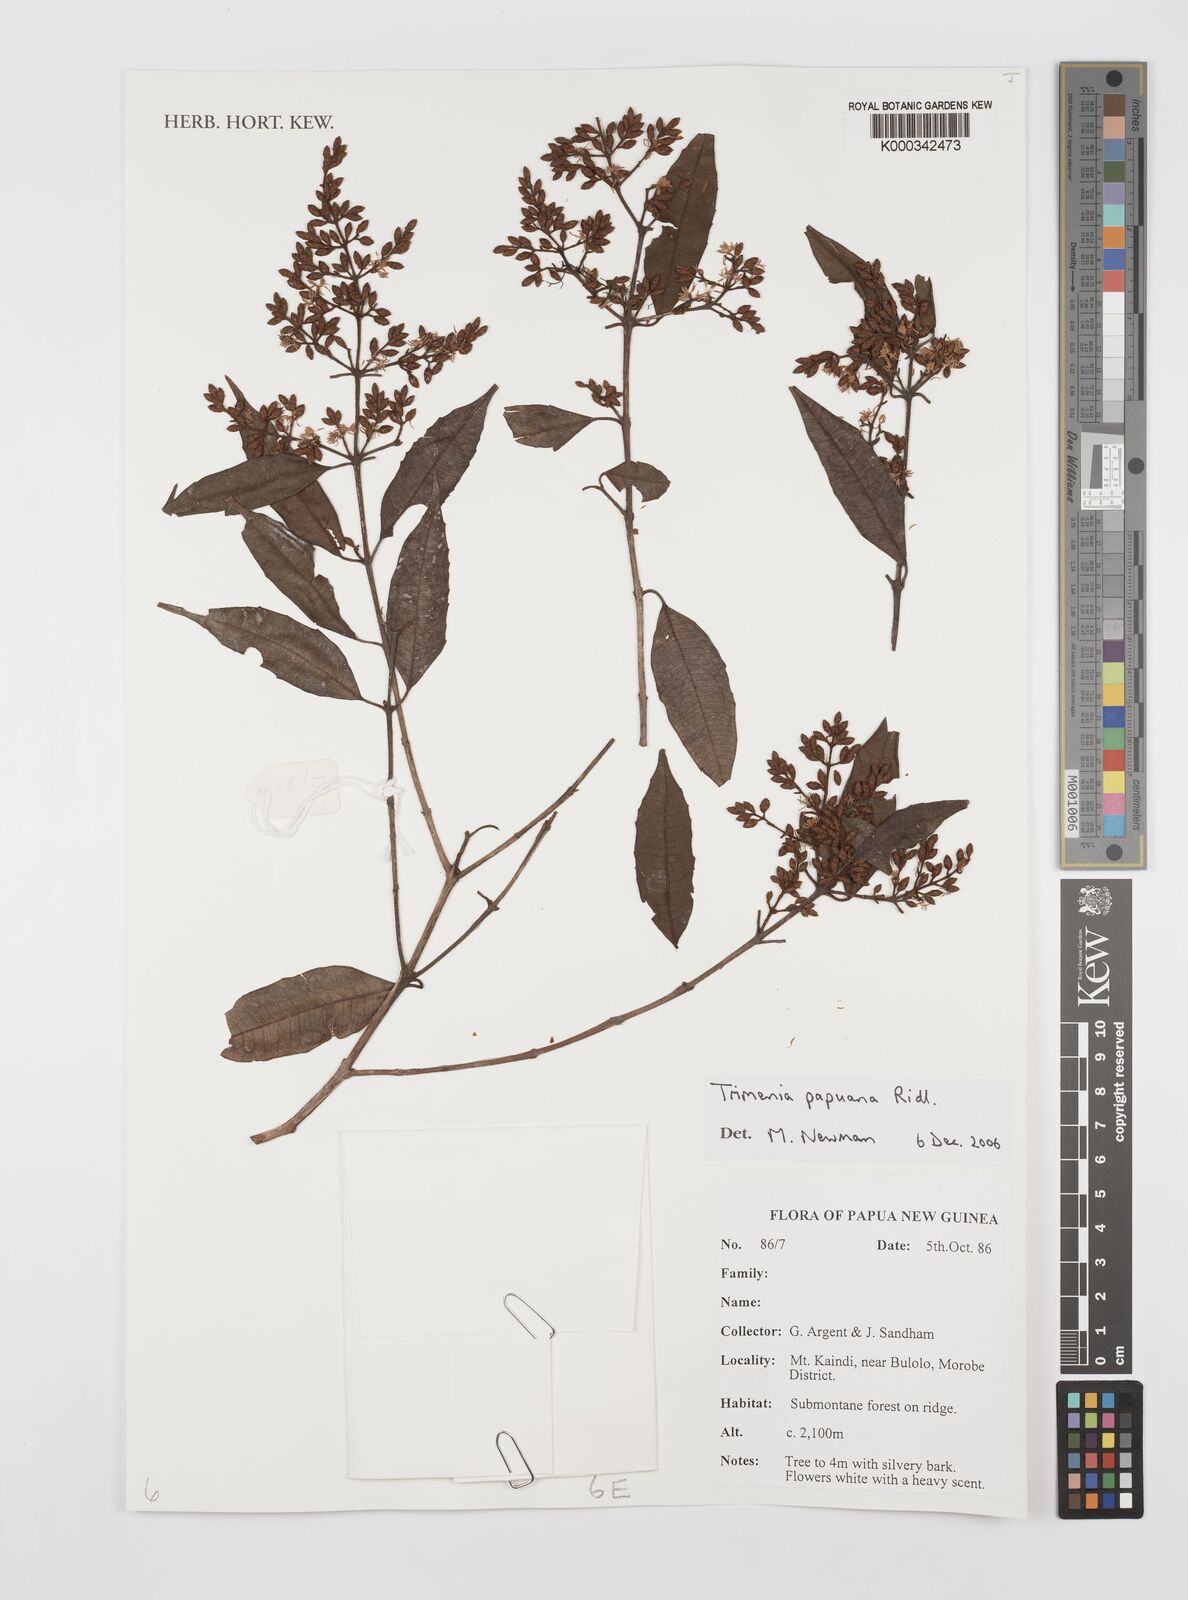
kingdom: Plantae
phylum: Tracheophyta
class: Magnoliopsida
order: Austrobaileyales
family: Trimeniaceae
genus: Trimenia
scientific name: Trimenia papuana
